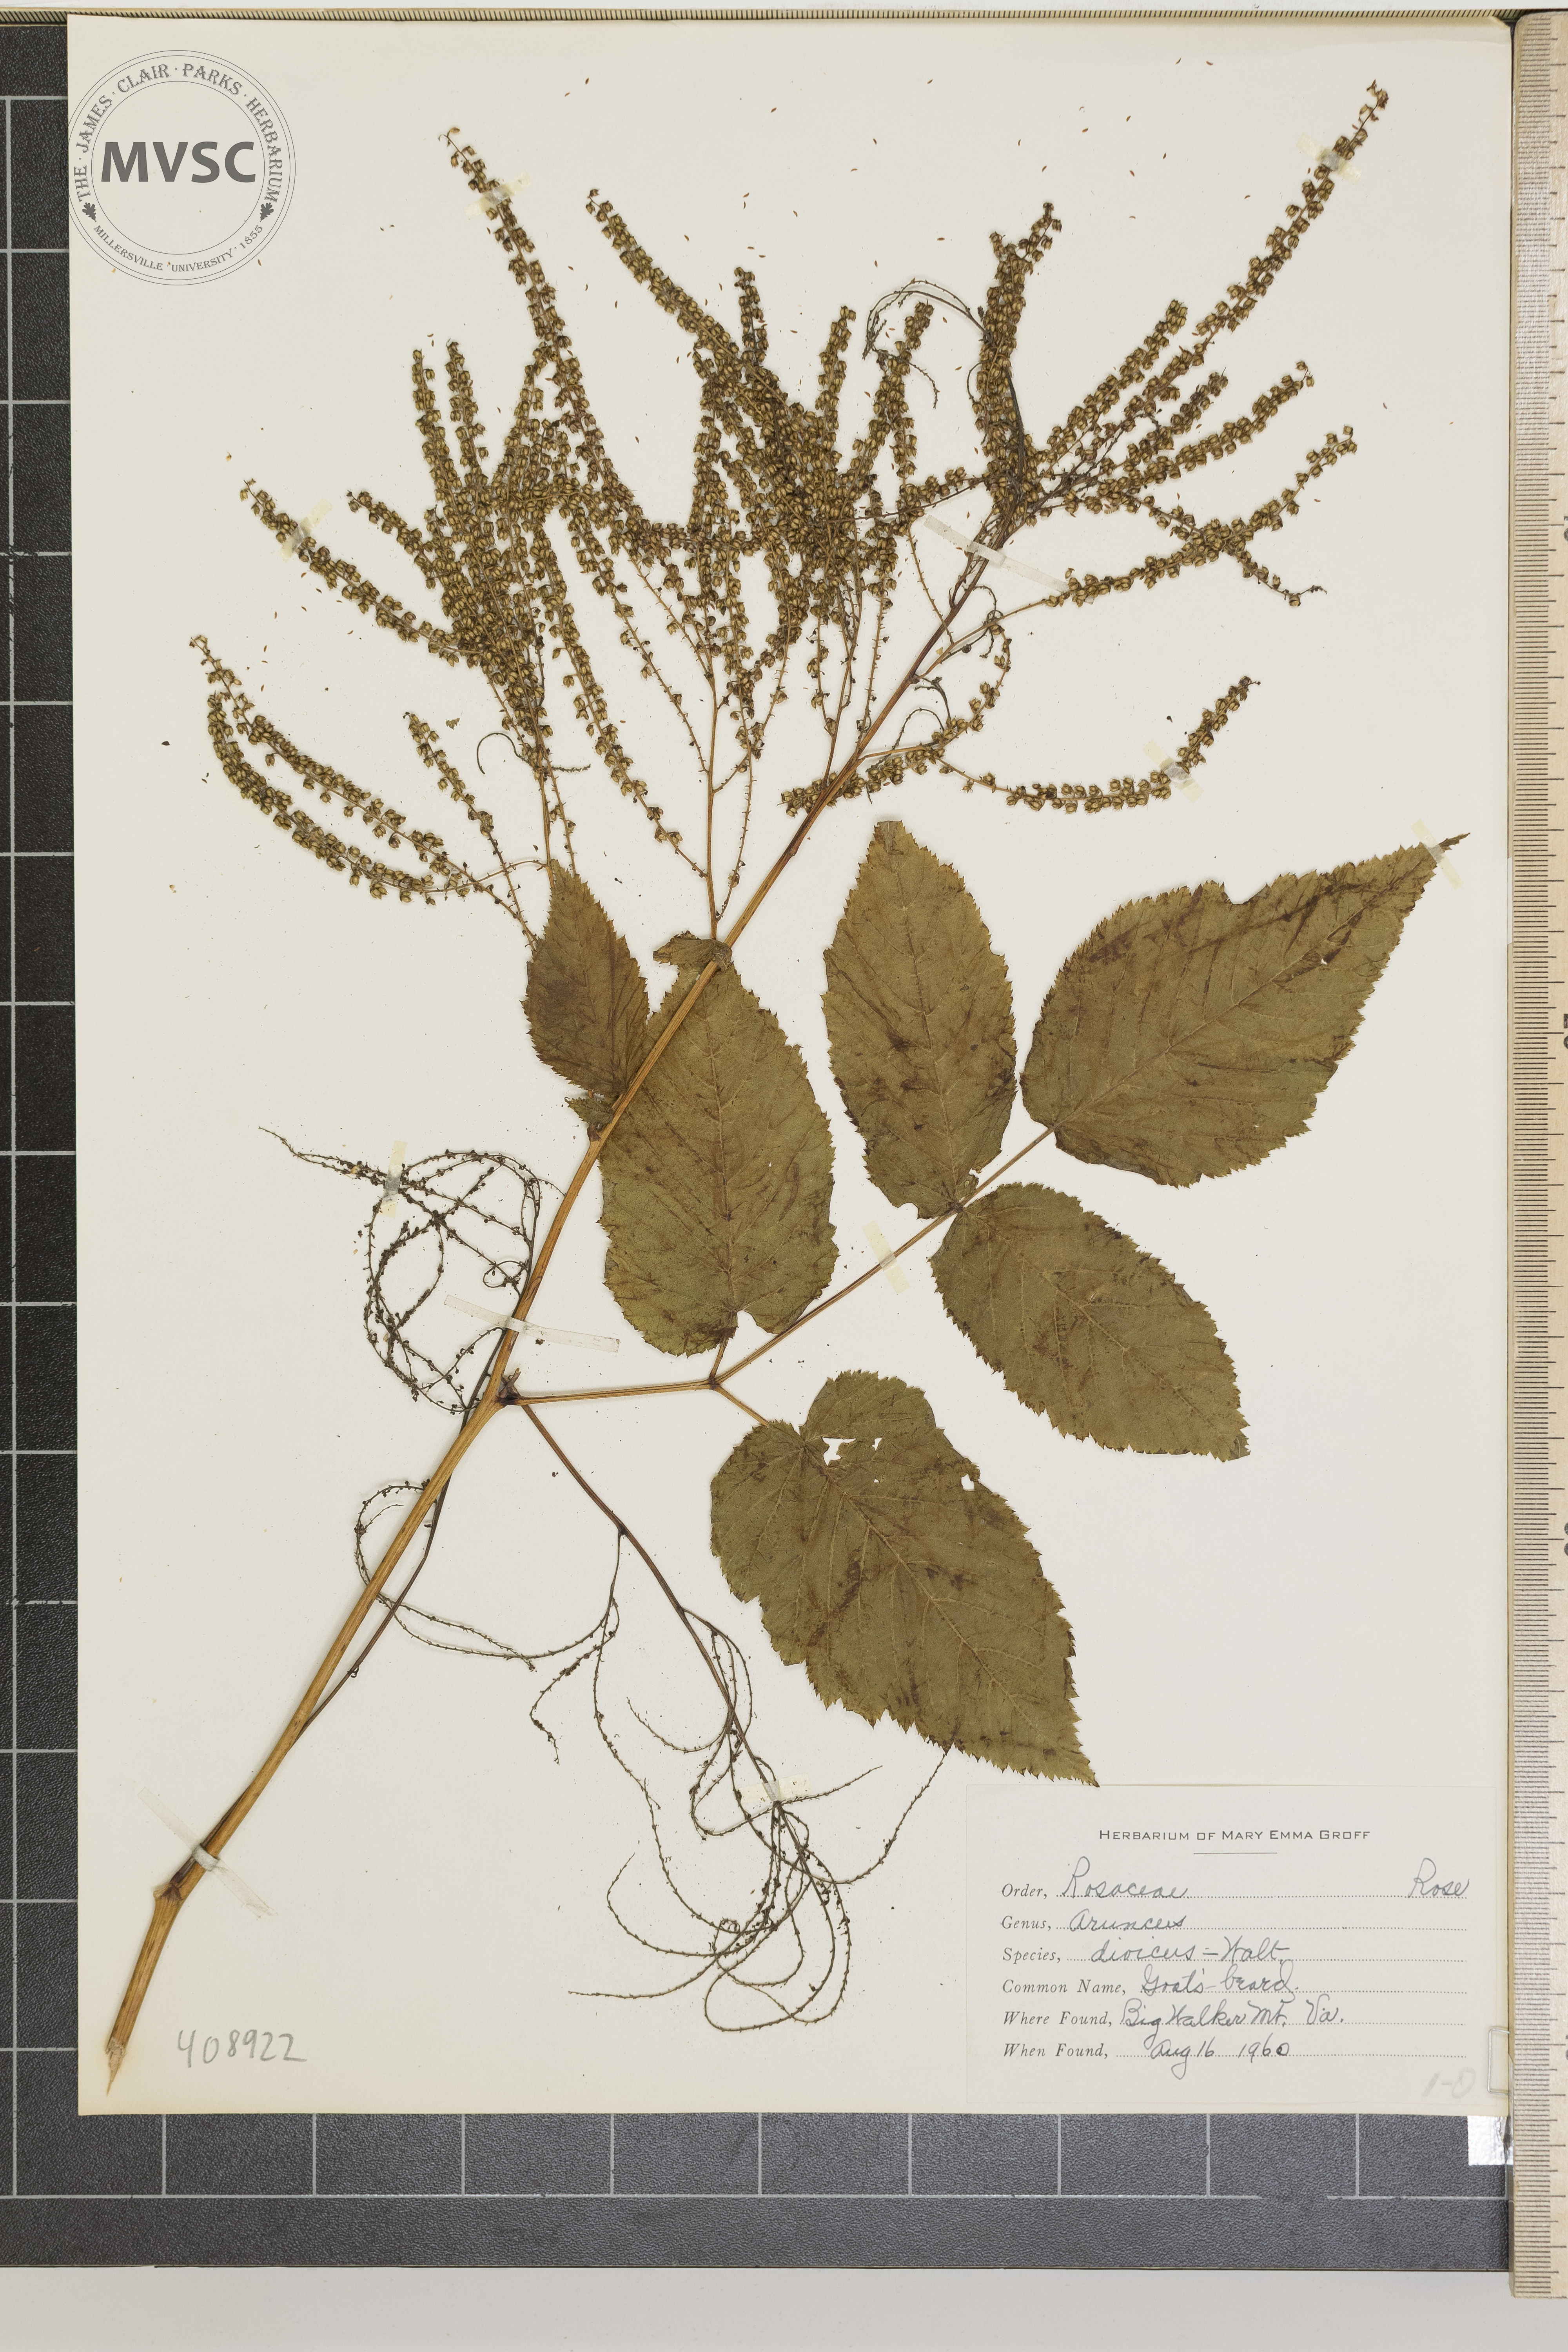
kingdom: Plantae
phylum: Tracheophyta
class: Magnoliopsida
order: Rosales
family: Rosaceae
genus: Aruncus
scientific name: Aruncus dioicus
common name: Goat's Beard
